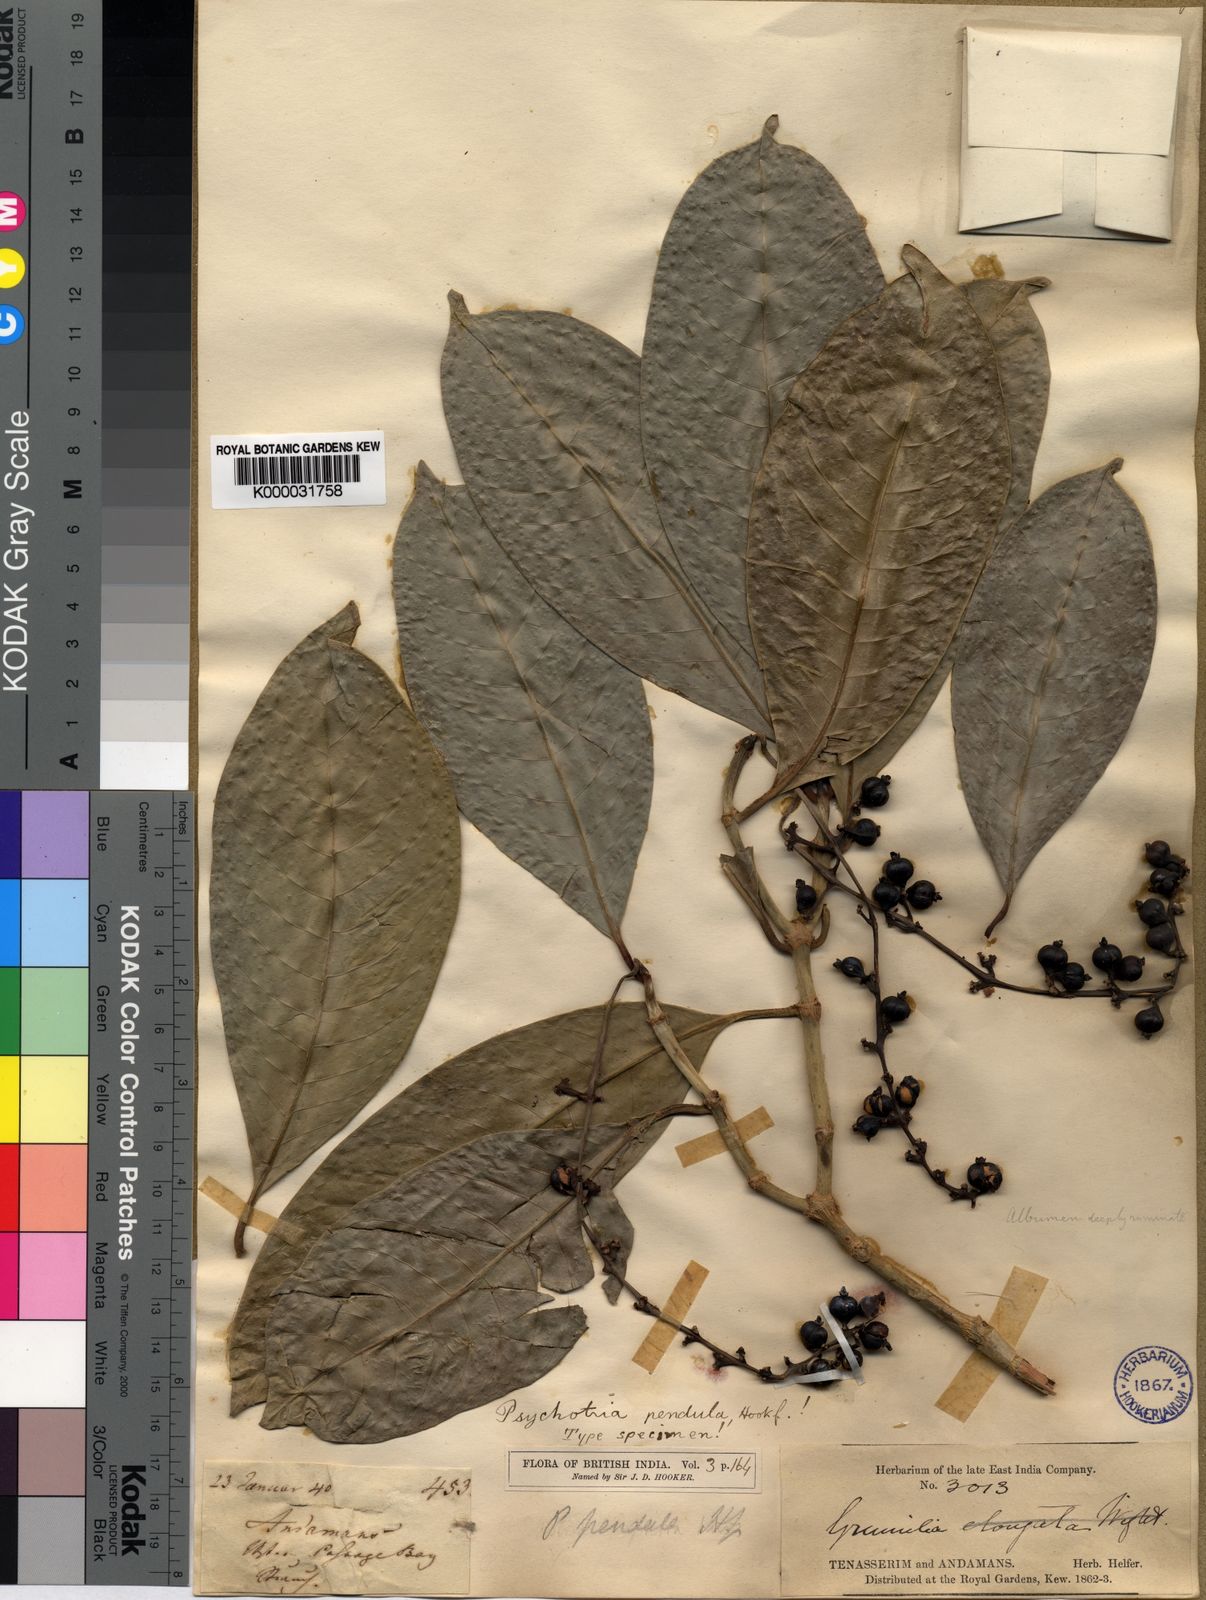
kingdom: Plantae
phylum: Tracheophyta
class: Magnoliopsida
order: Gentianales
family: Rubiaceae
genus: Psychotria
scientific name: Psychotria pendula
